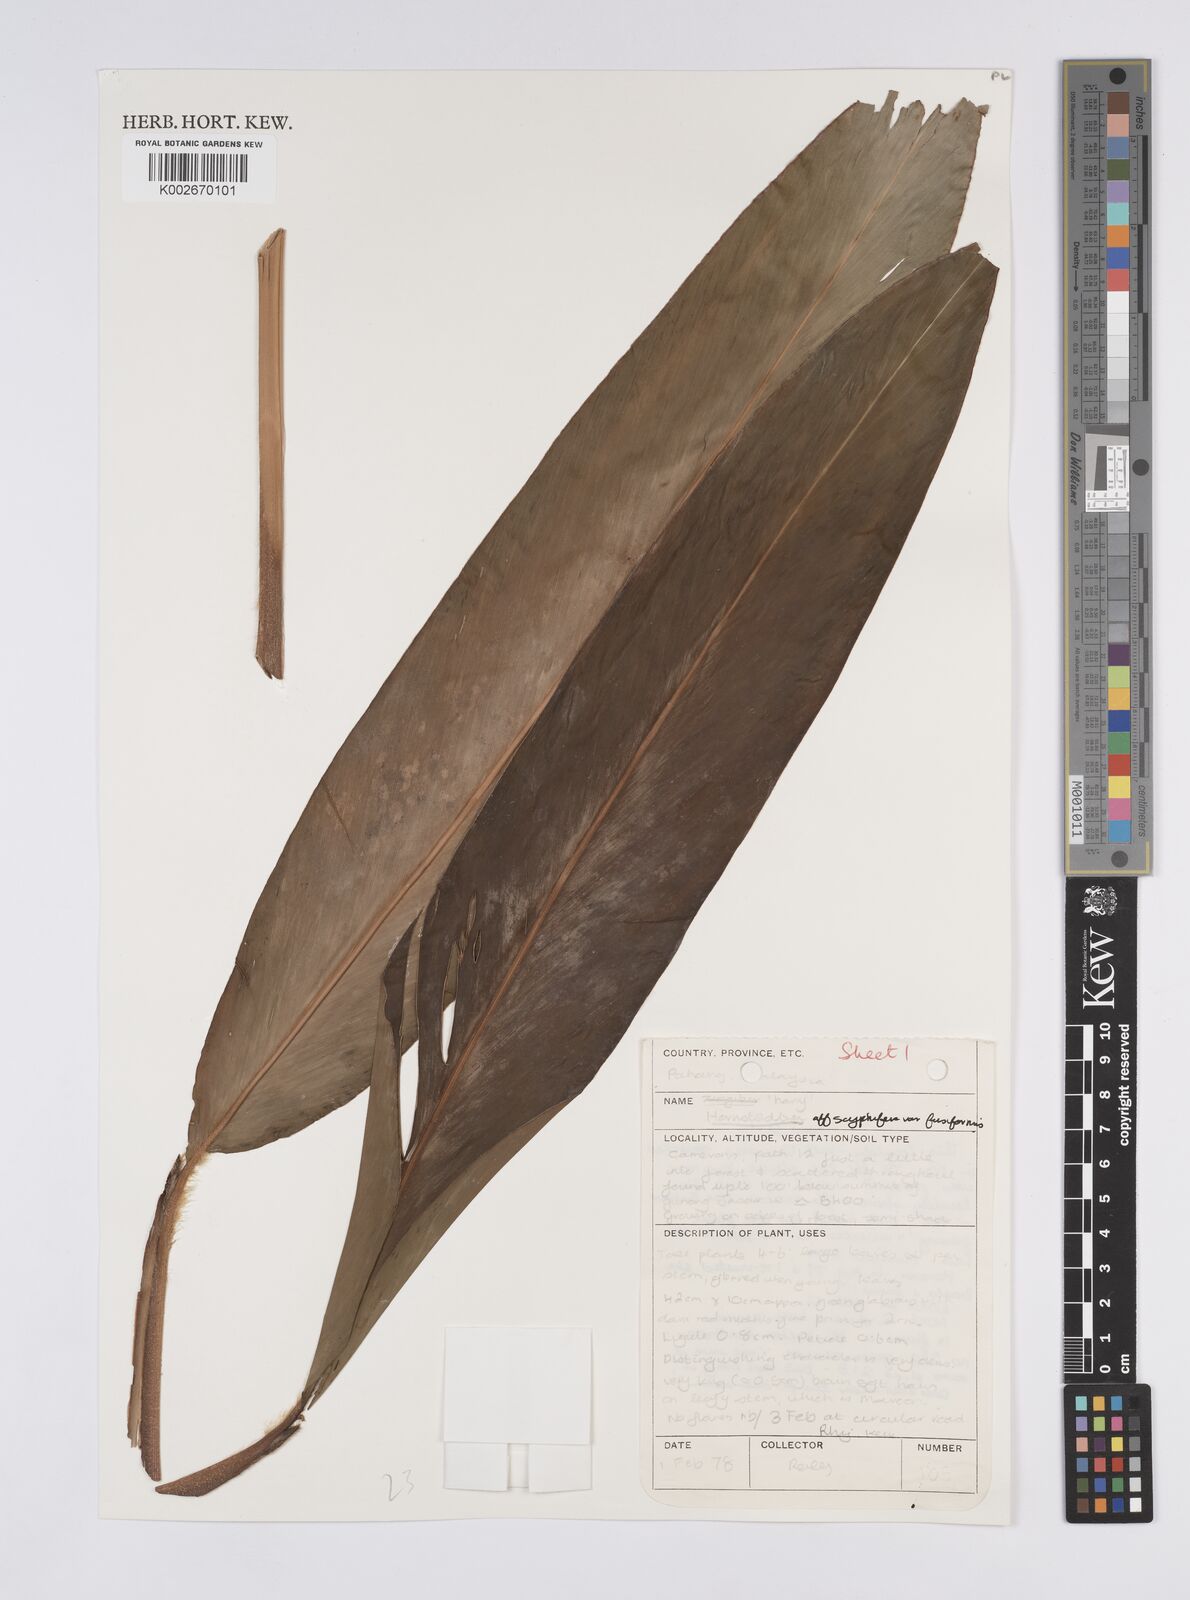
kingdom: Plantae
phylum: Tracheophyta
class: Liliopsida
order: Zingiberales
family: Zingiberaceae
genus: Hornstedtia
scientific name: Hornstedtia scyphifera
